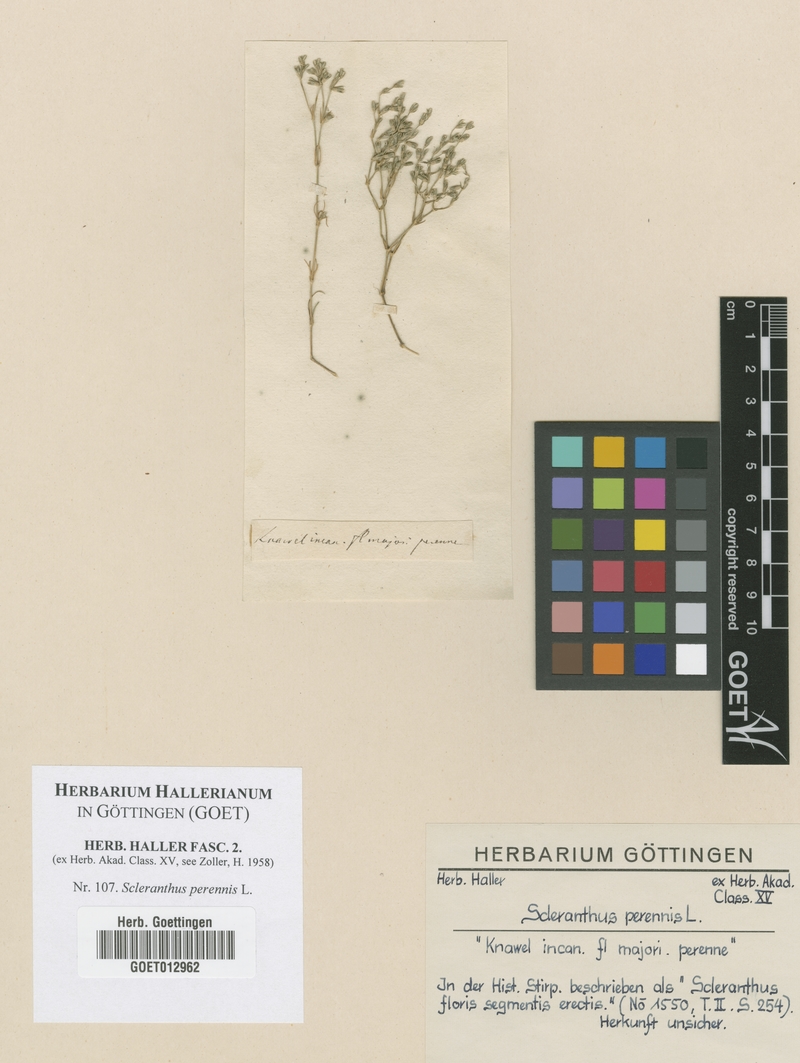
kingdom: Plantae
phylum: Tracheophyta
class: Magnoliopsida
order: Caryophyllales
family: Caryophyllaceae
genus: Scleranthus
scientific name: Scleranthus perennis
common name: Perennial knawel
